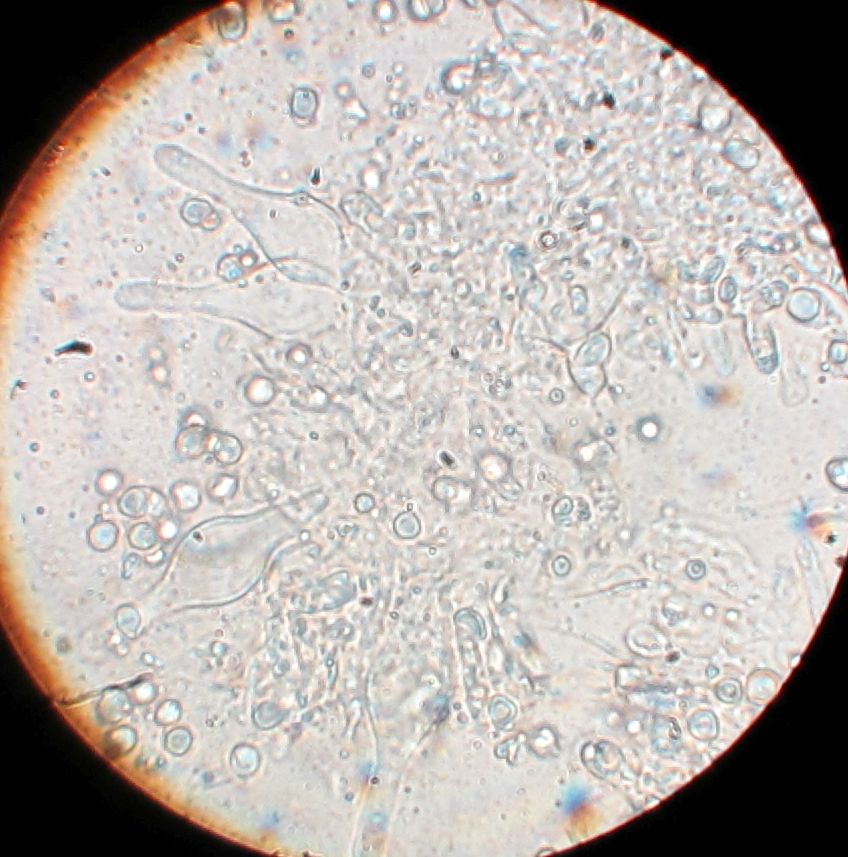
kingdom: Fungi
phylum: Basidiomycota
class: Agaricomycetes
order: Agaricales
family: Tricholomataceae
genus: Mycenella
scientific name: Mycenella salicina
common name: glatsporet dughat
